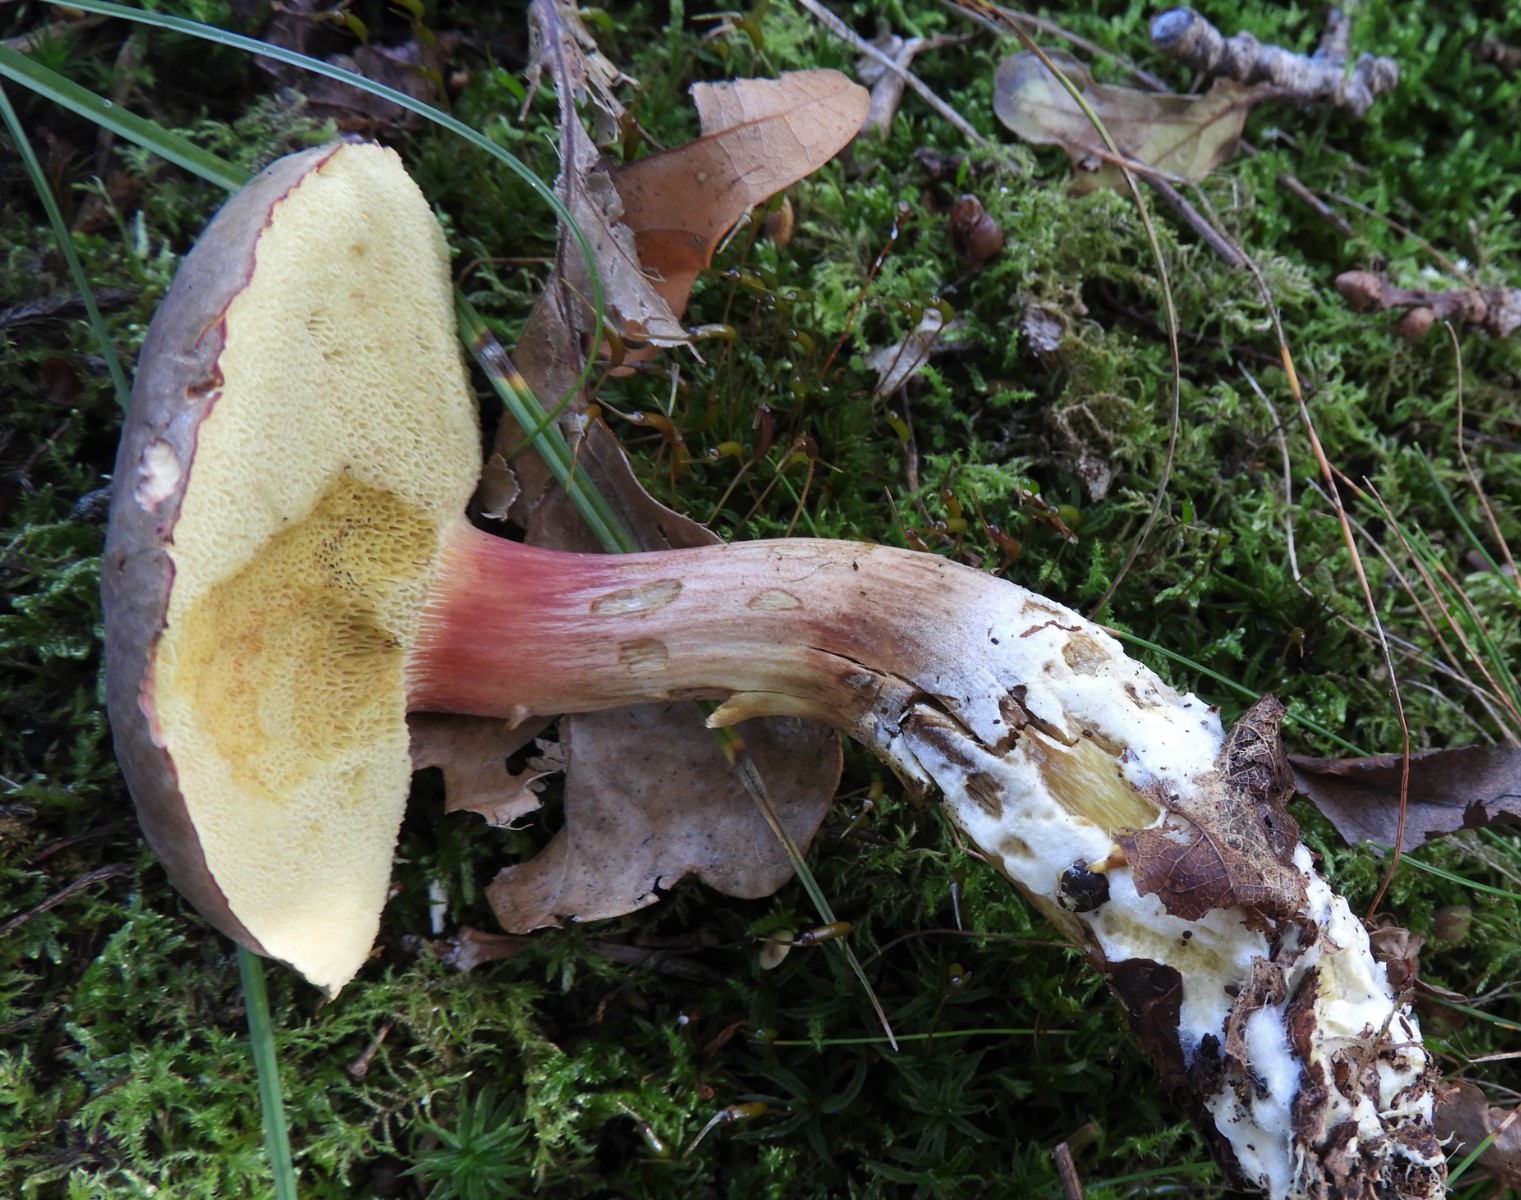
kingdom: Fungi
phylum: Basidiomycota
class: Agaricomycetes
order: Boletales
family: Boletaceae
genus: Xerocomellus
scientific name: Xerocomellus pruinatus
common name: dugget rørhat
